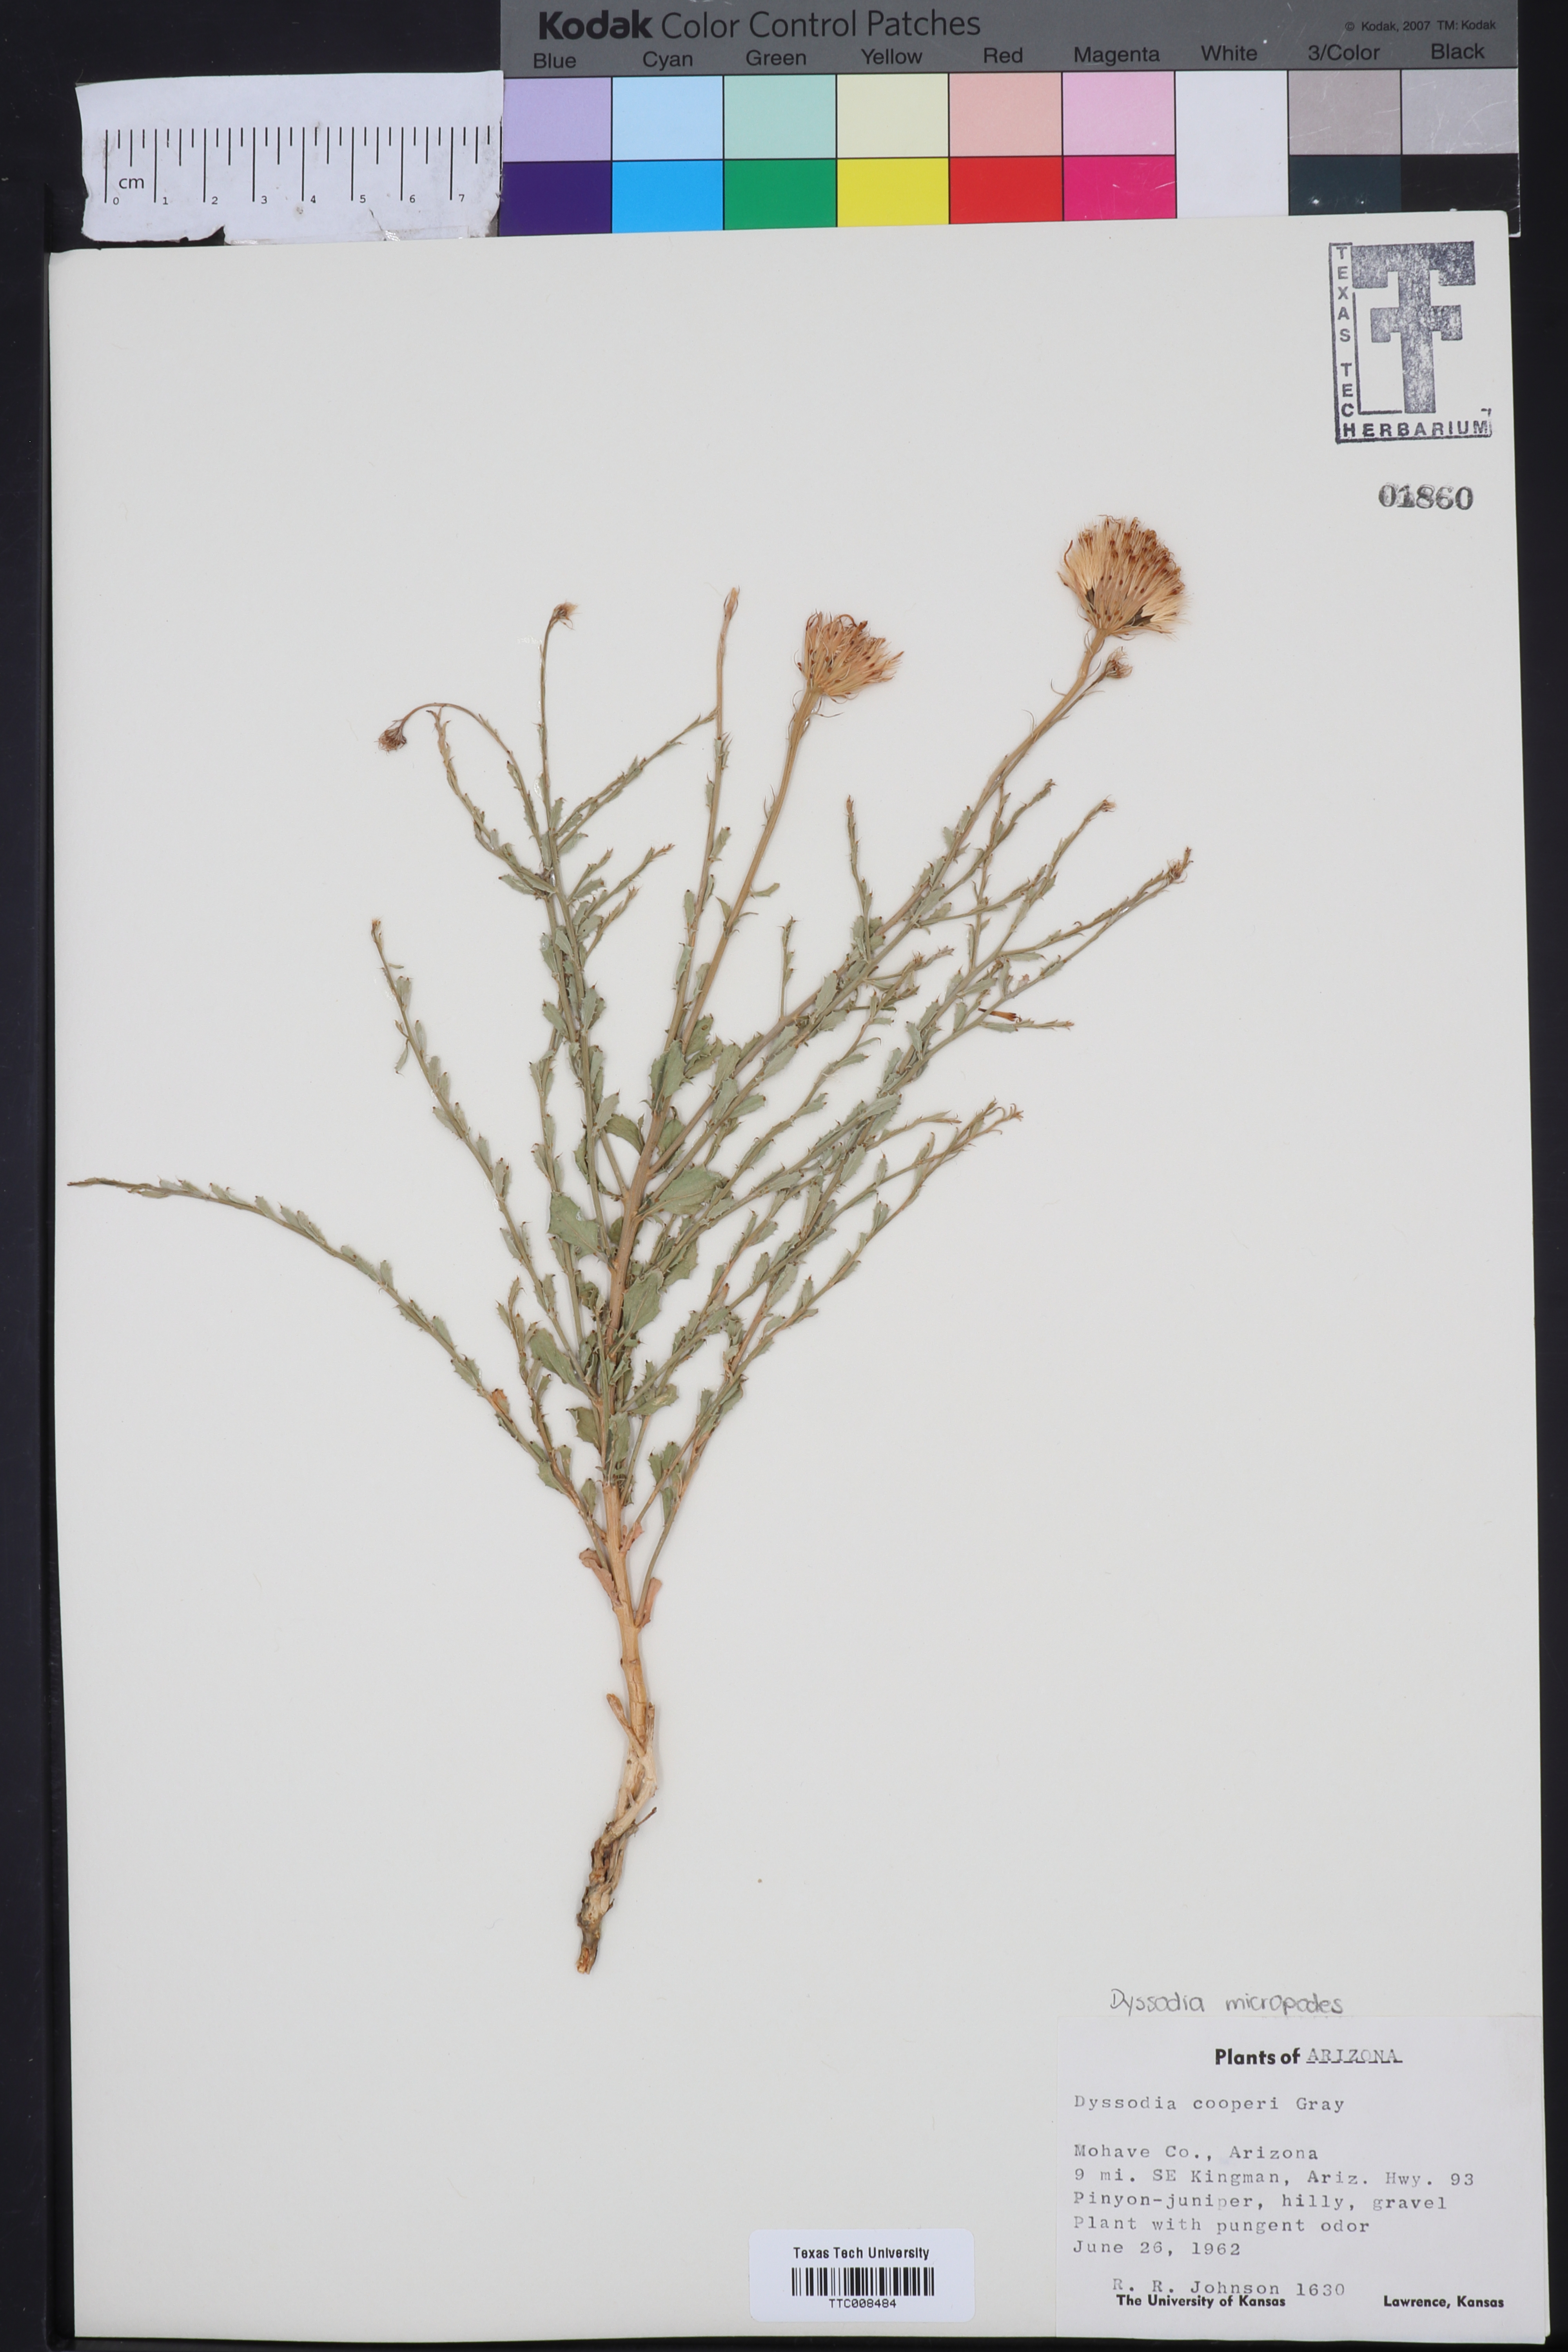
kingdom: Plantae
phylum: Tracheophyta
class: Magnoliopsida
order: Asterales
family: Asteraceae
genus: Adenophyllum
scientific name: Adenophyllum cooperi
